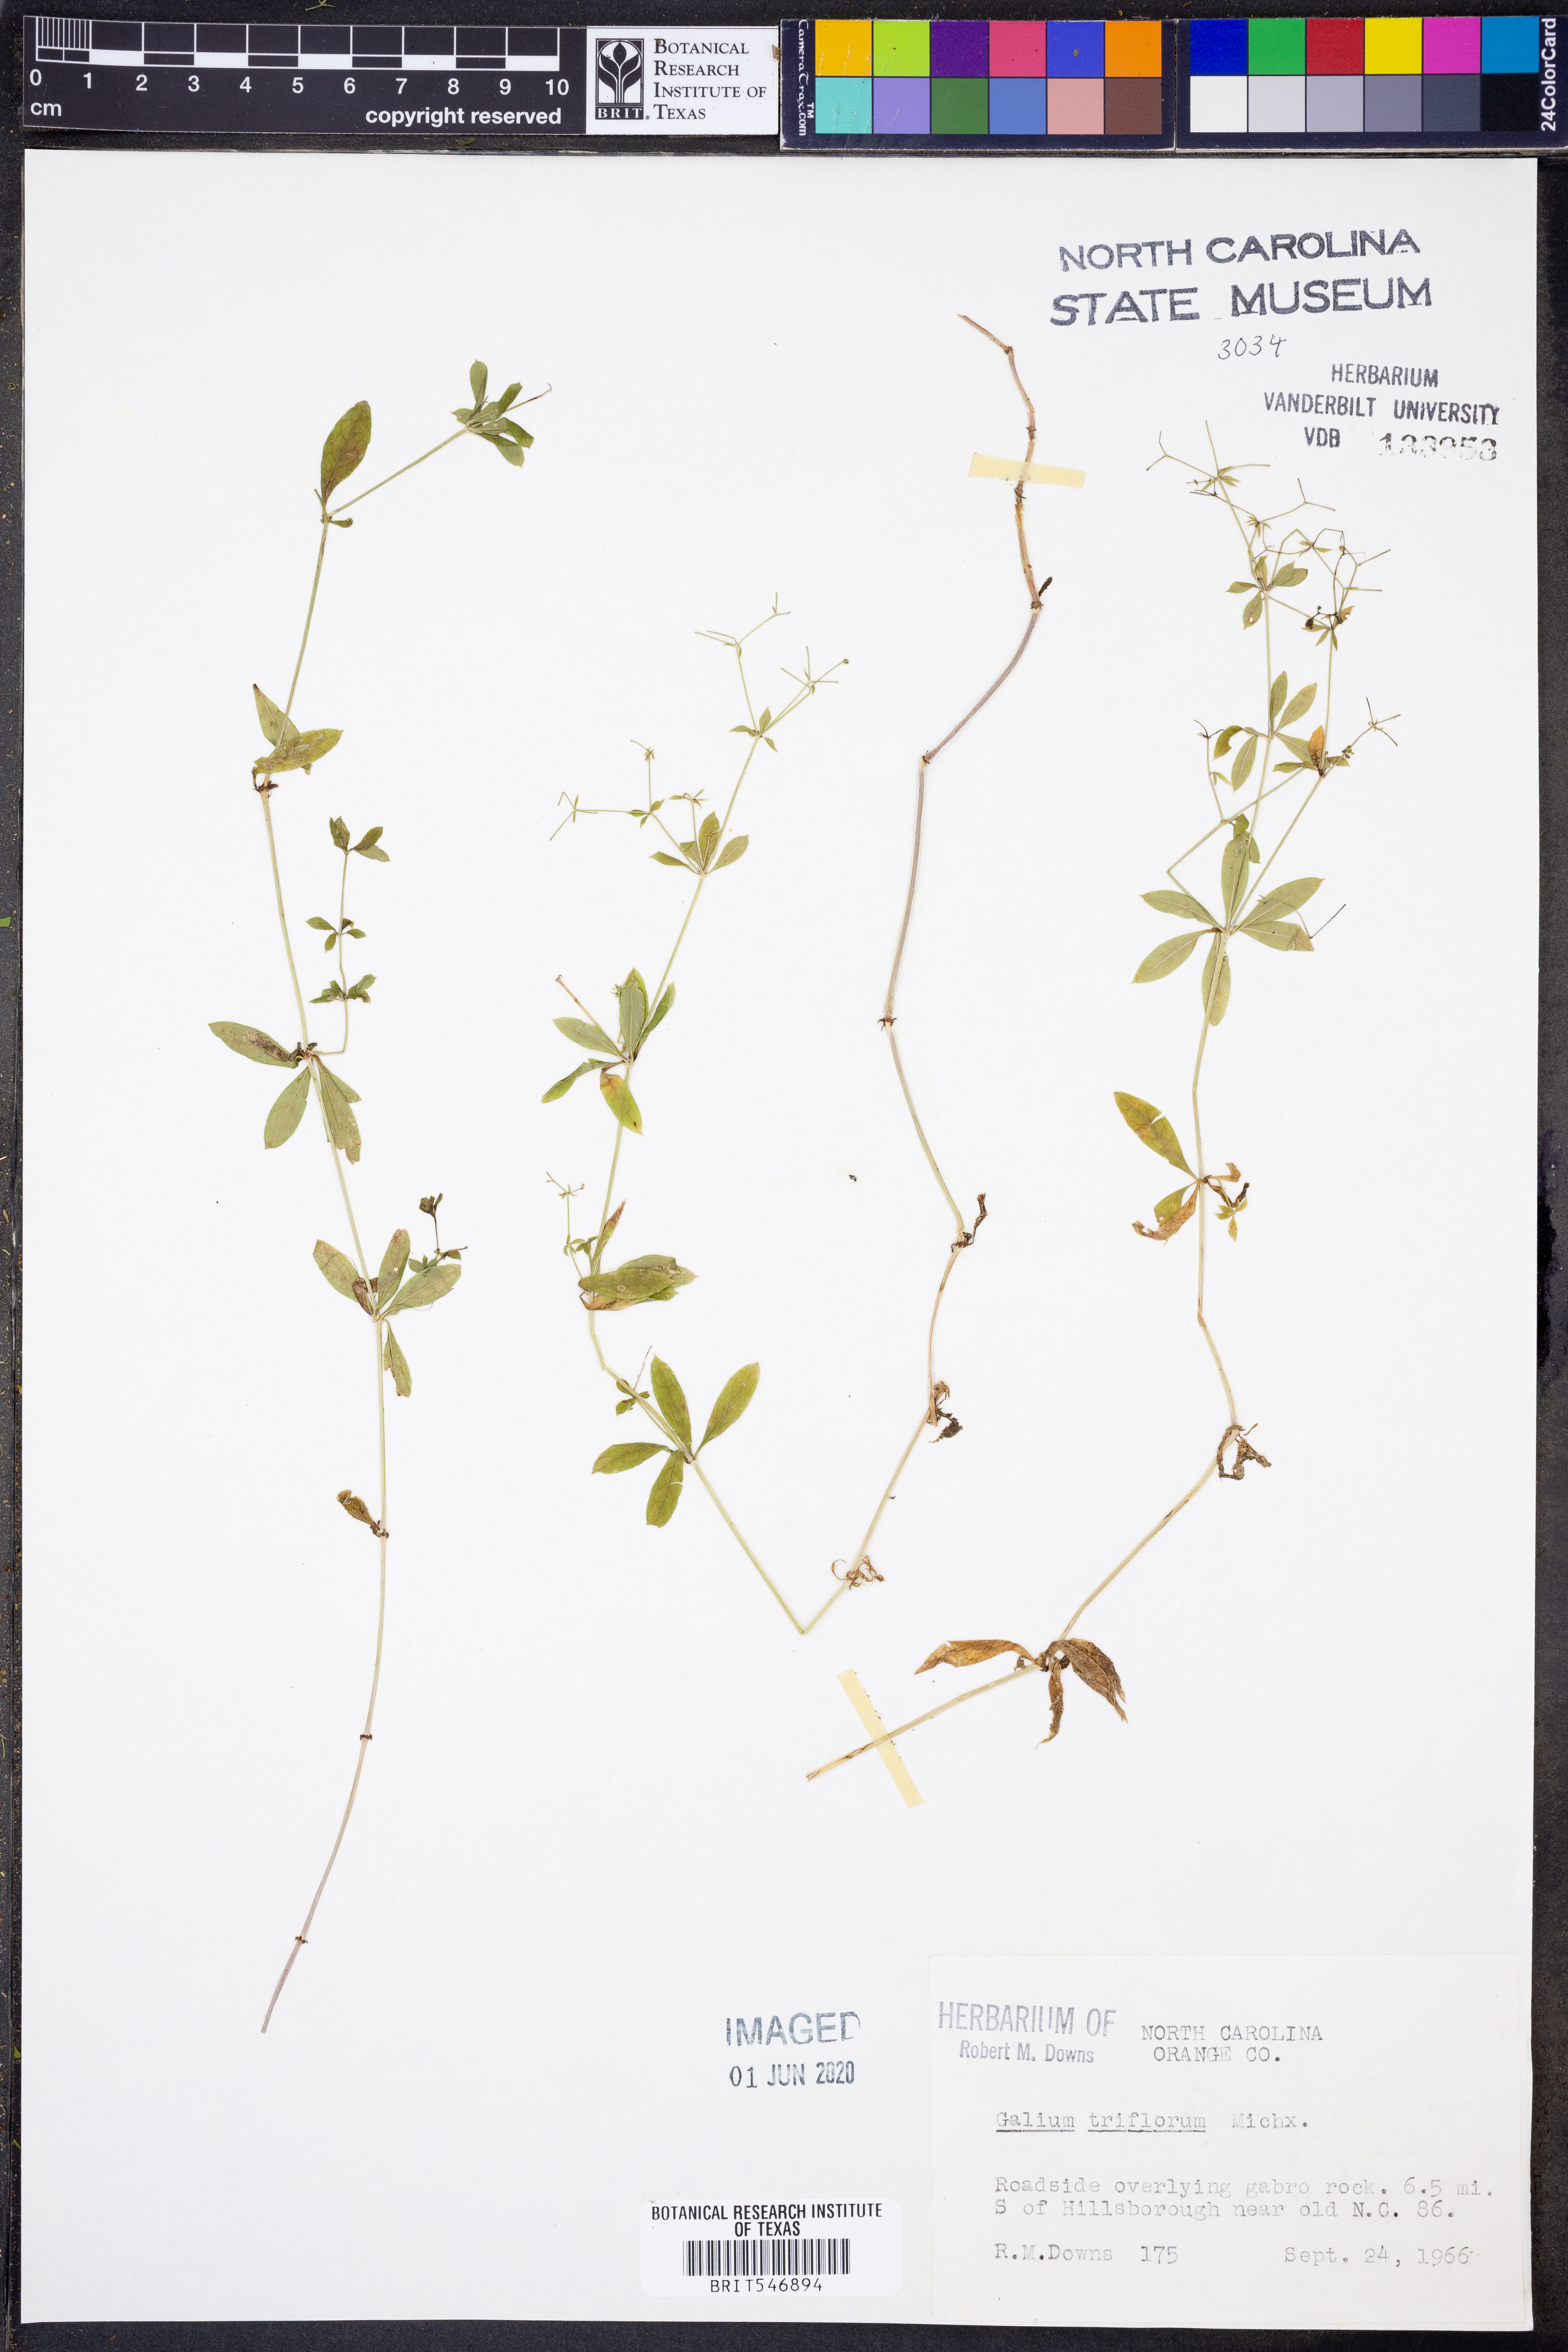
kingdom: Plantae
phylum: Tracheophyta
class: Magnoliopsida
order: Gentianales
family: Rubiaceae
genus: Galium
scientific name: Galium triflorum
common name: Fragrant bedstraw
